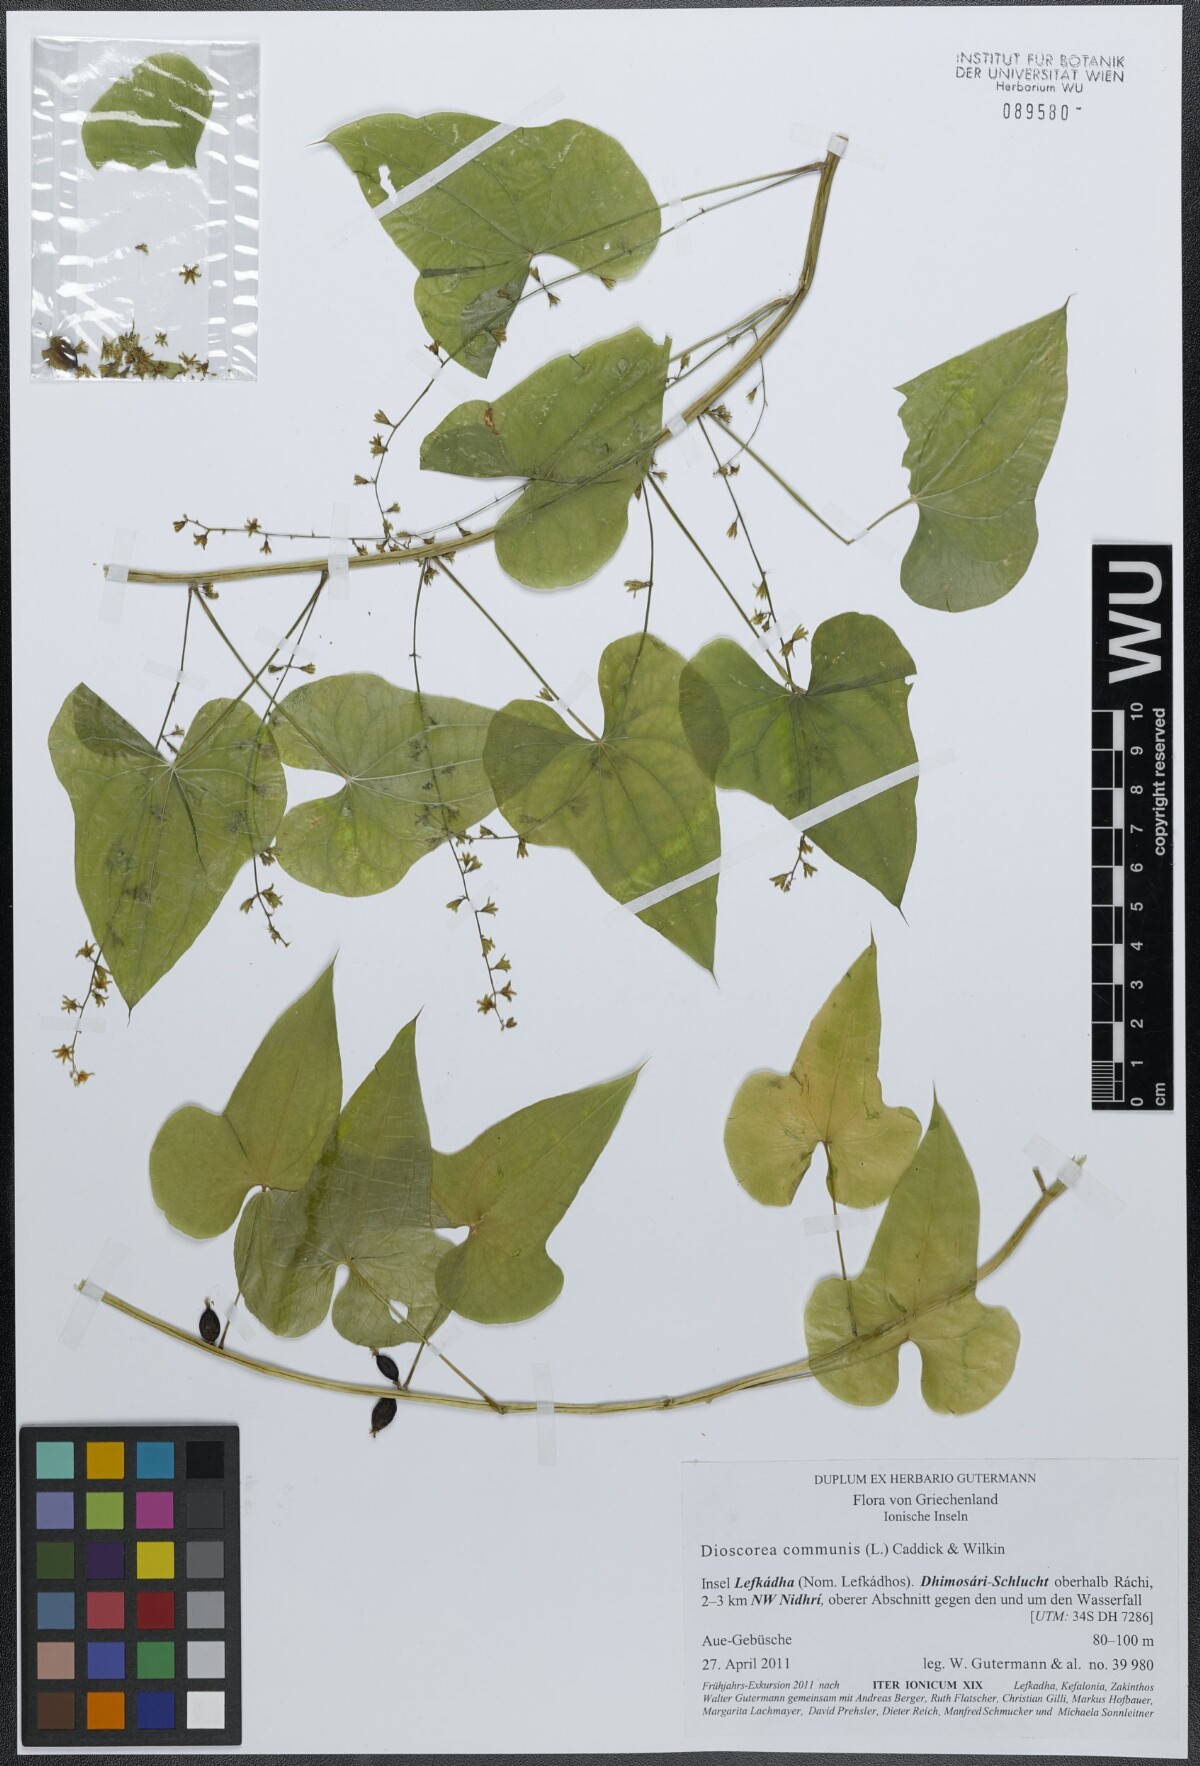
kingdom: Plantae
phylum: Tracheophyta
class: Liliopsida
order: Dioscoreales
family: Dioscoreaceae
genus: Dioscorea
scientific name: Dioscorea communis
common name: Black-bindweed
